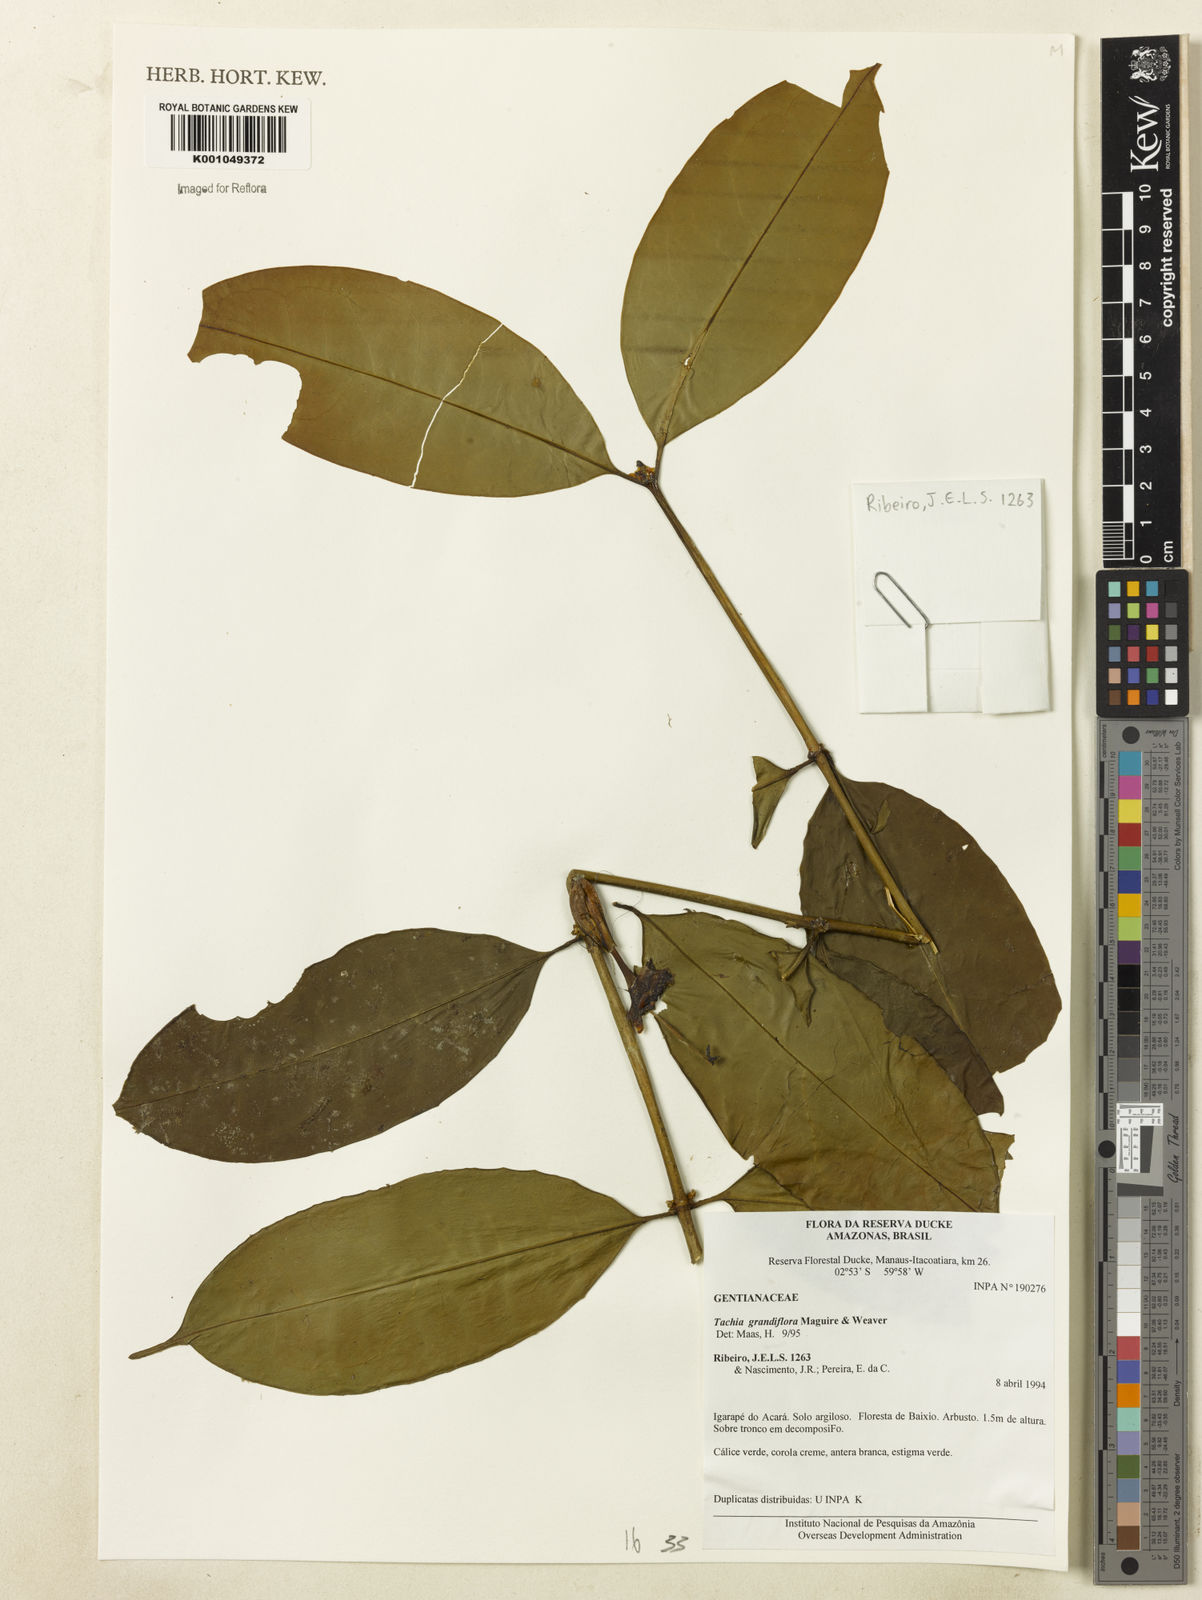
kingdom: Plantae
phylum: Tracheophyta
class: Magnoliopsida
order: Gentianales
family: Gentianaceae
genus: Tachia
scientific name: Tachia grandiflora
